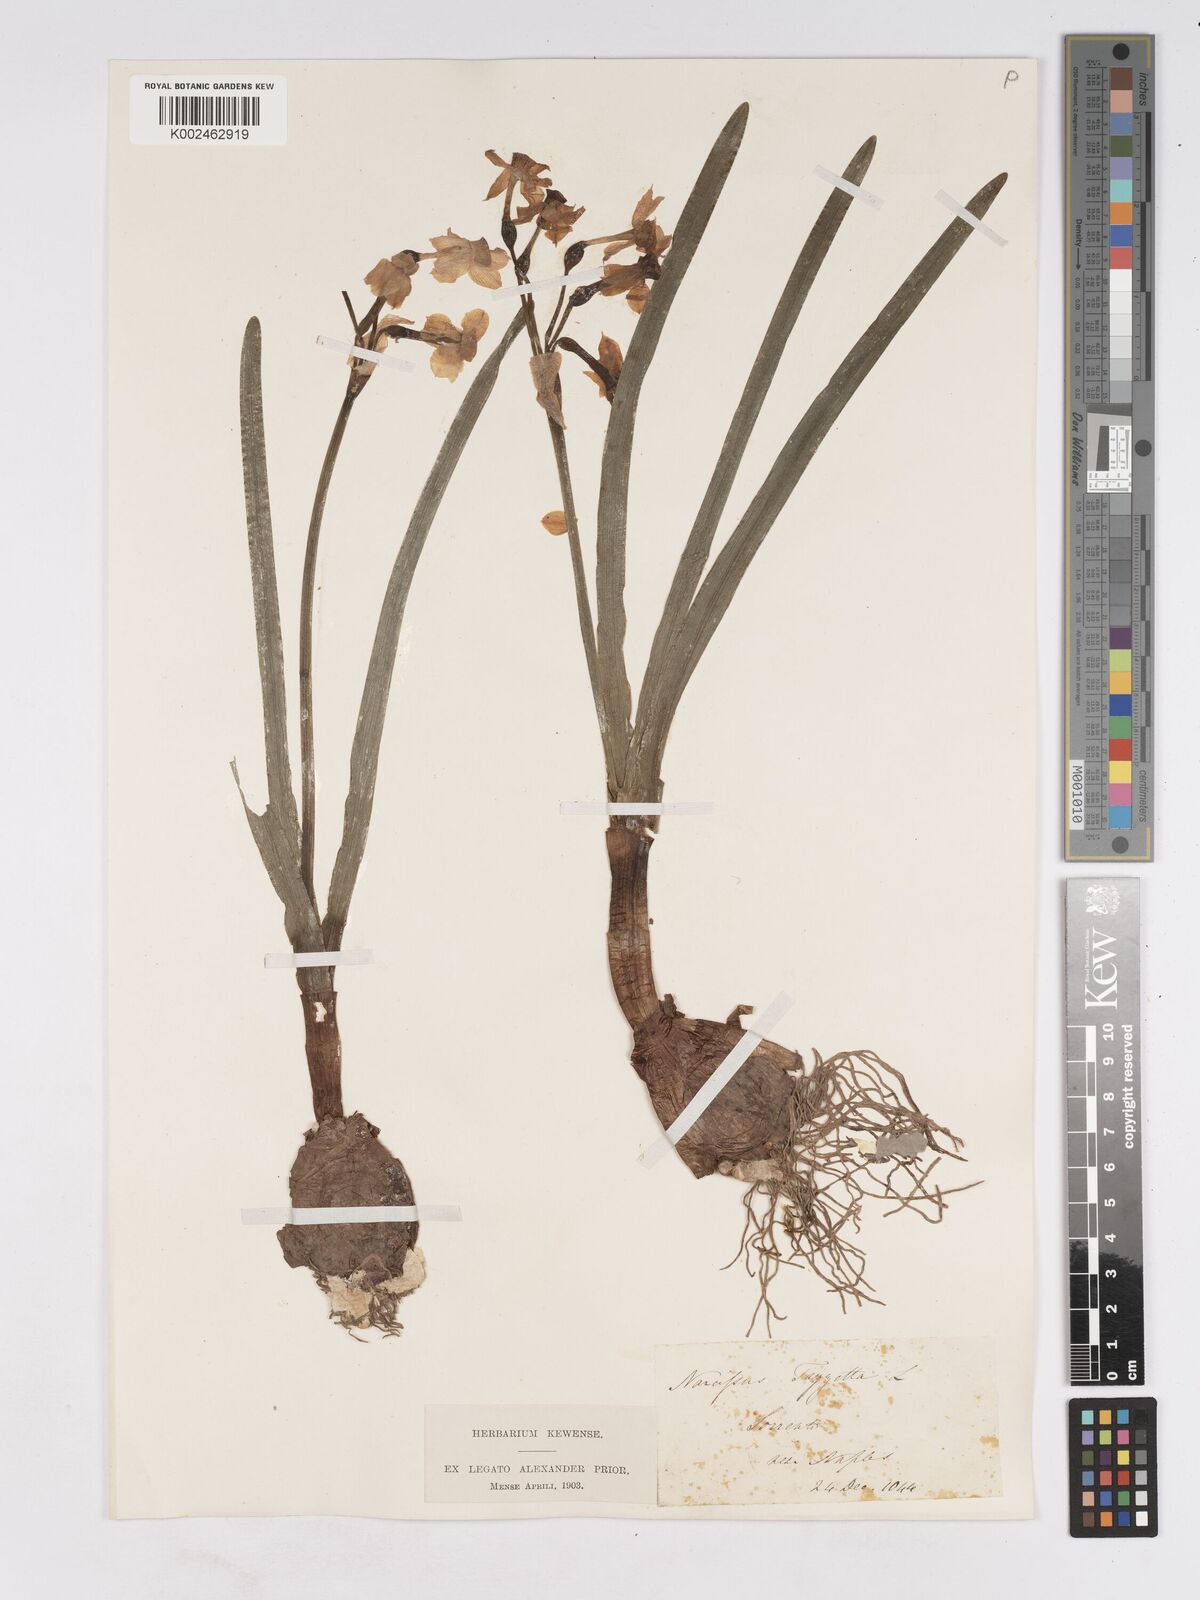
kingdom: Plantae
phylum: Tracheophyta
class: Liliopsida
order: Asparagales
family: Amaryllidaceae
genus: Narcissus
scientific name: Narcissus
